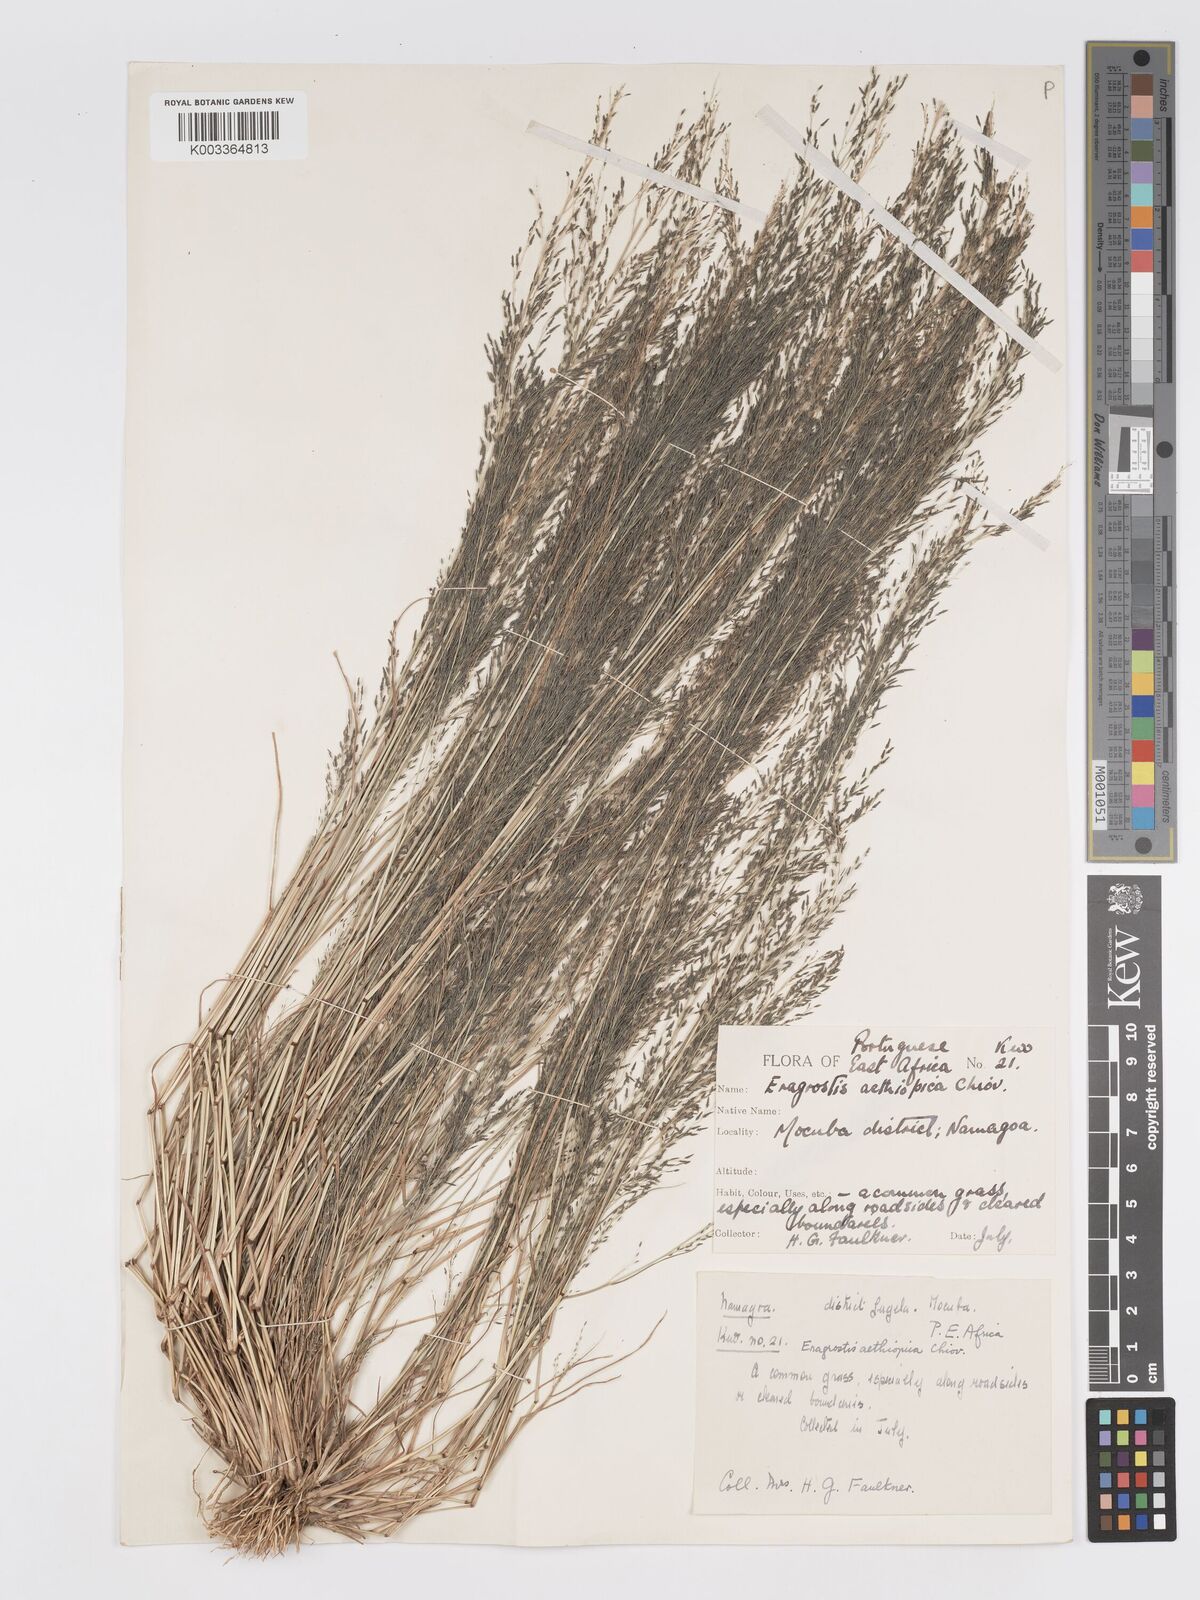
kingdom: Plantae
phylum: Tracheophyta
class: Liliopsida
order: Poales
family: Poaceae
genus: Eragrostis
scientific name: Eragrostis aethiopica
